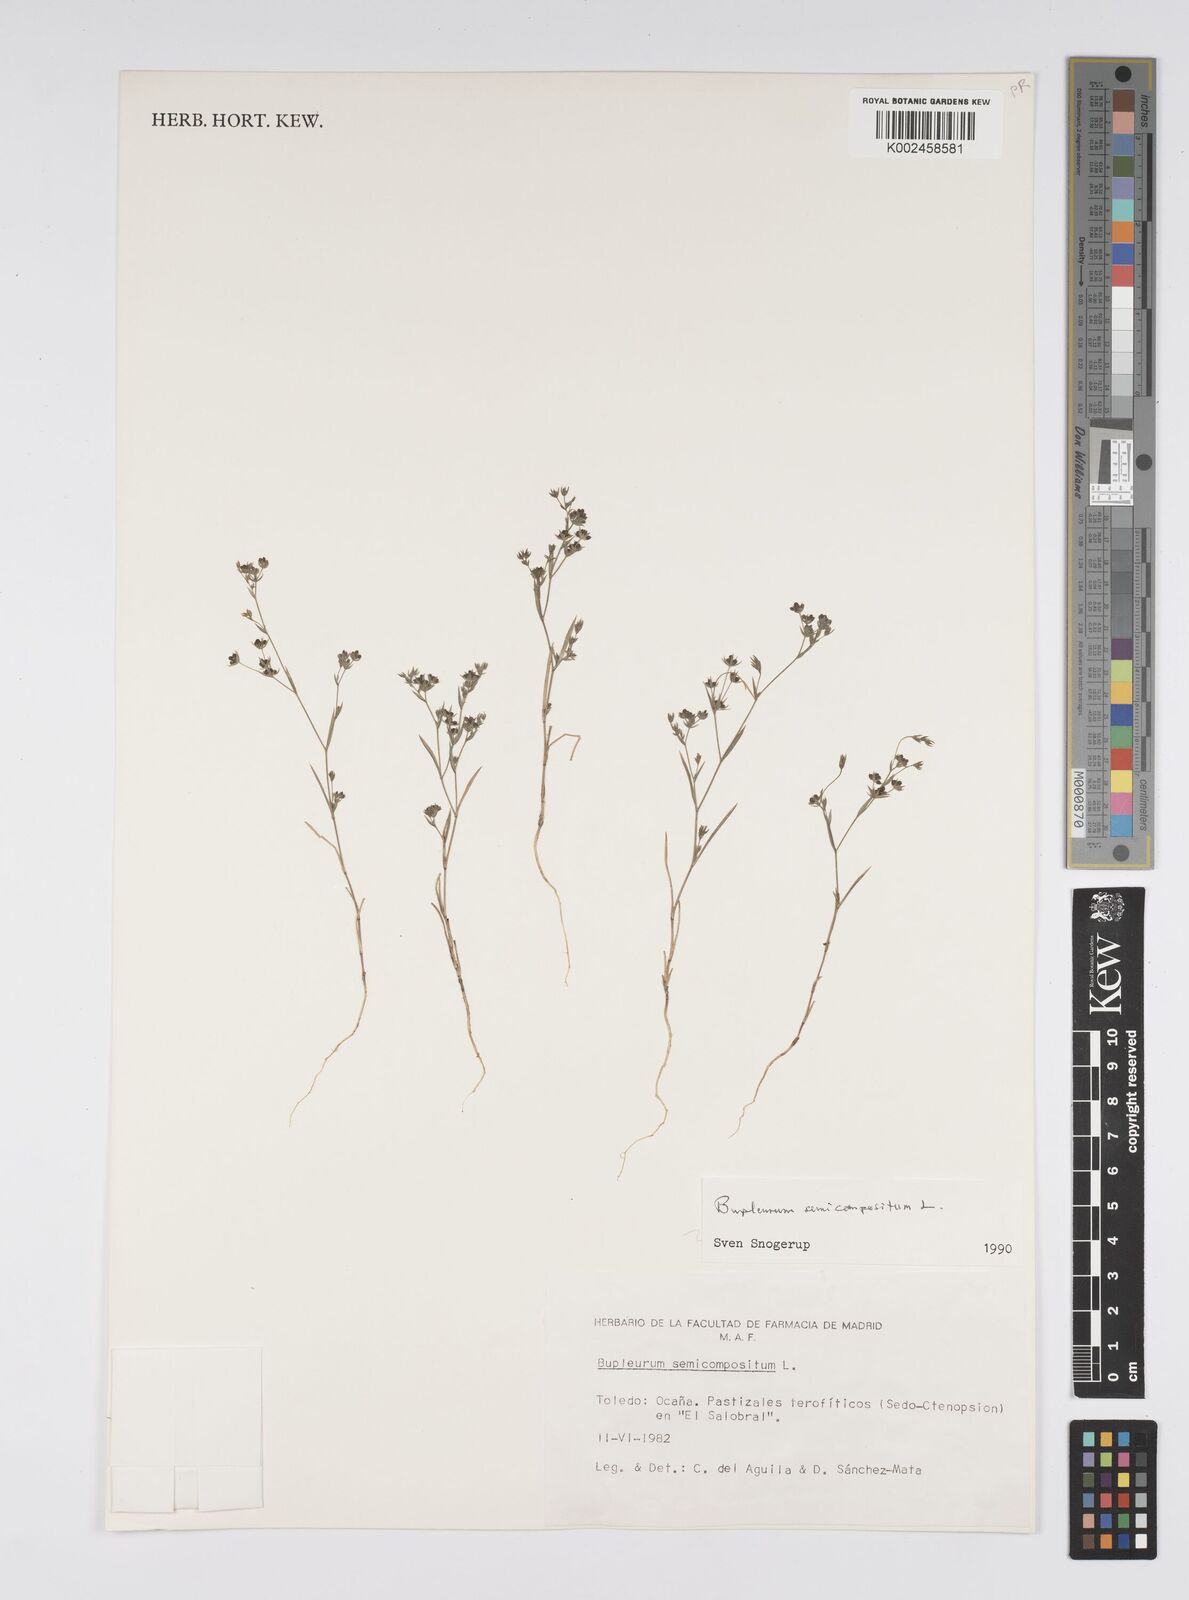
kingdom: Plantae
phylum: Tracheophyta
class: Magnoliopsida
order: Apiales
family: Apiaceae
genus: Bupleurum
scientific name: Bupleurum semicompositum
